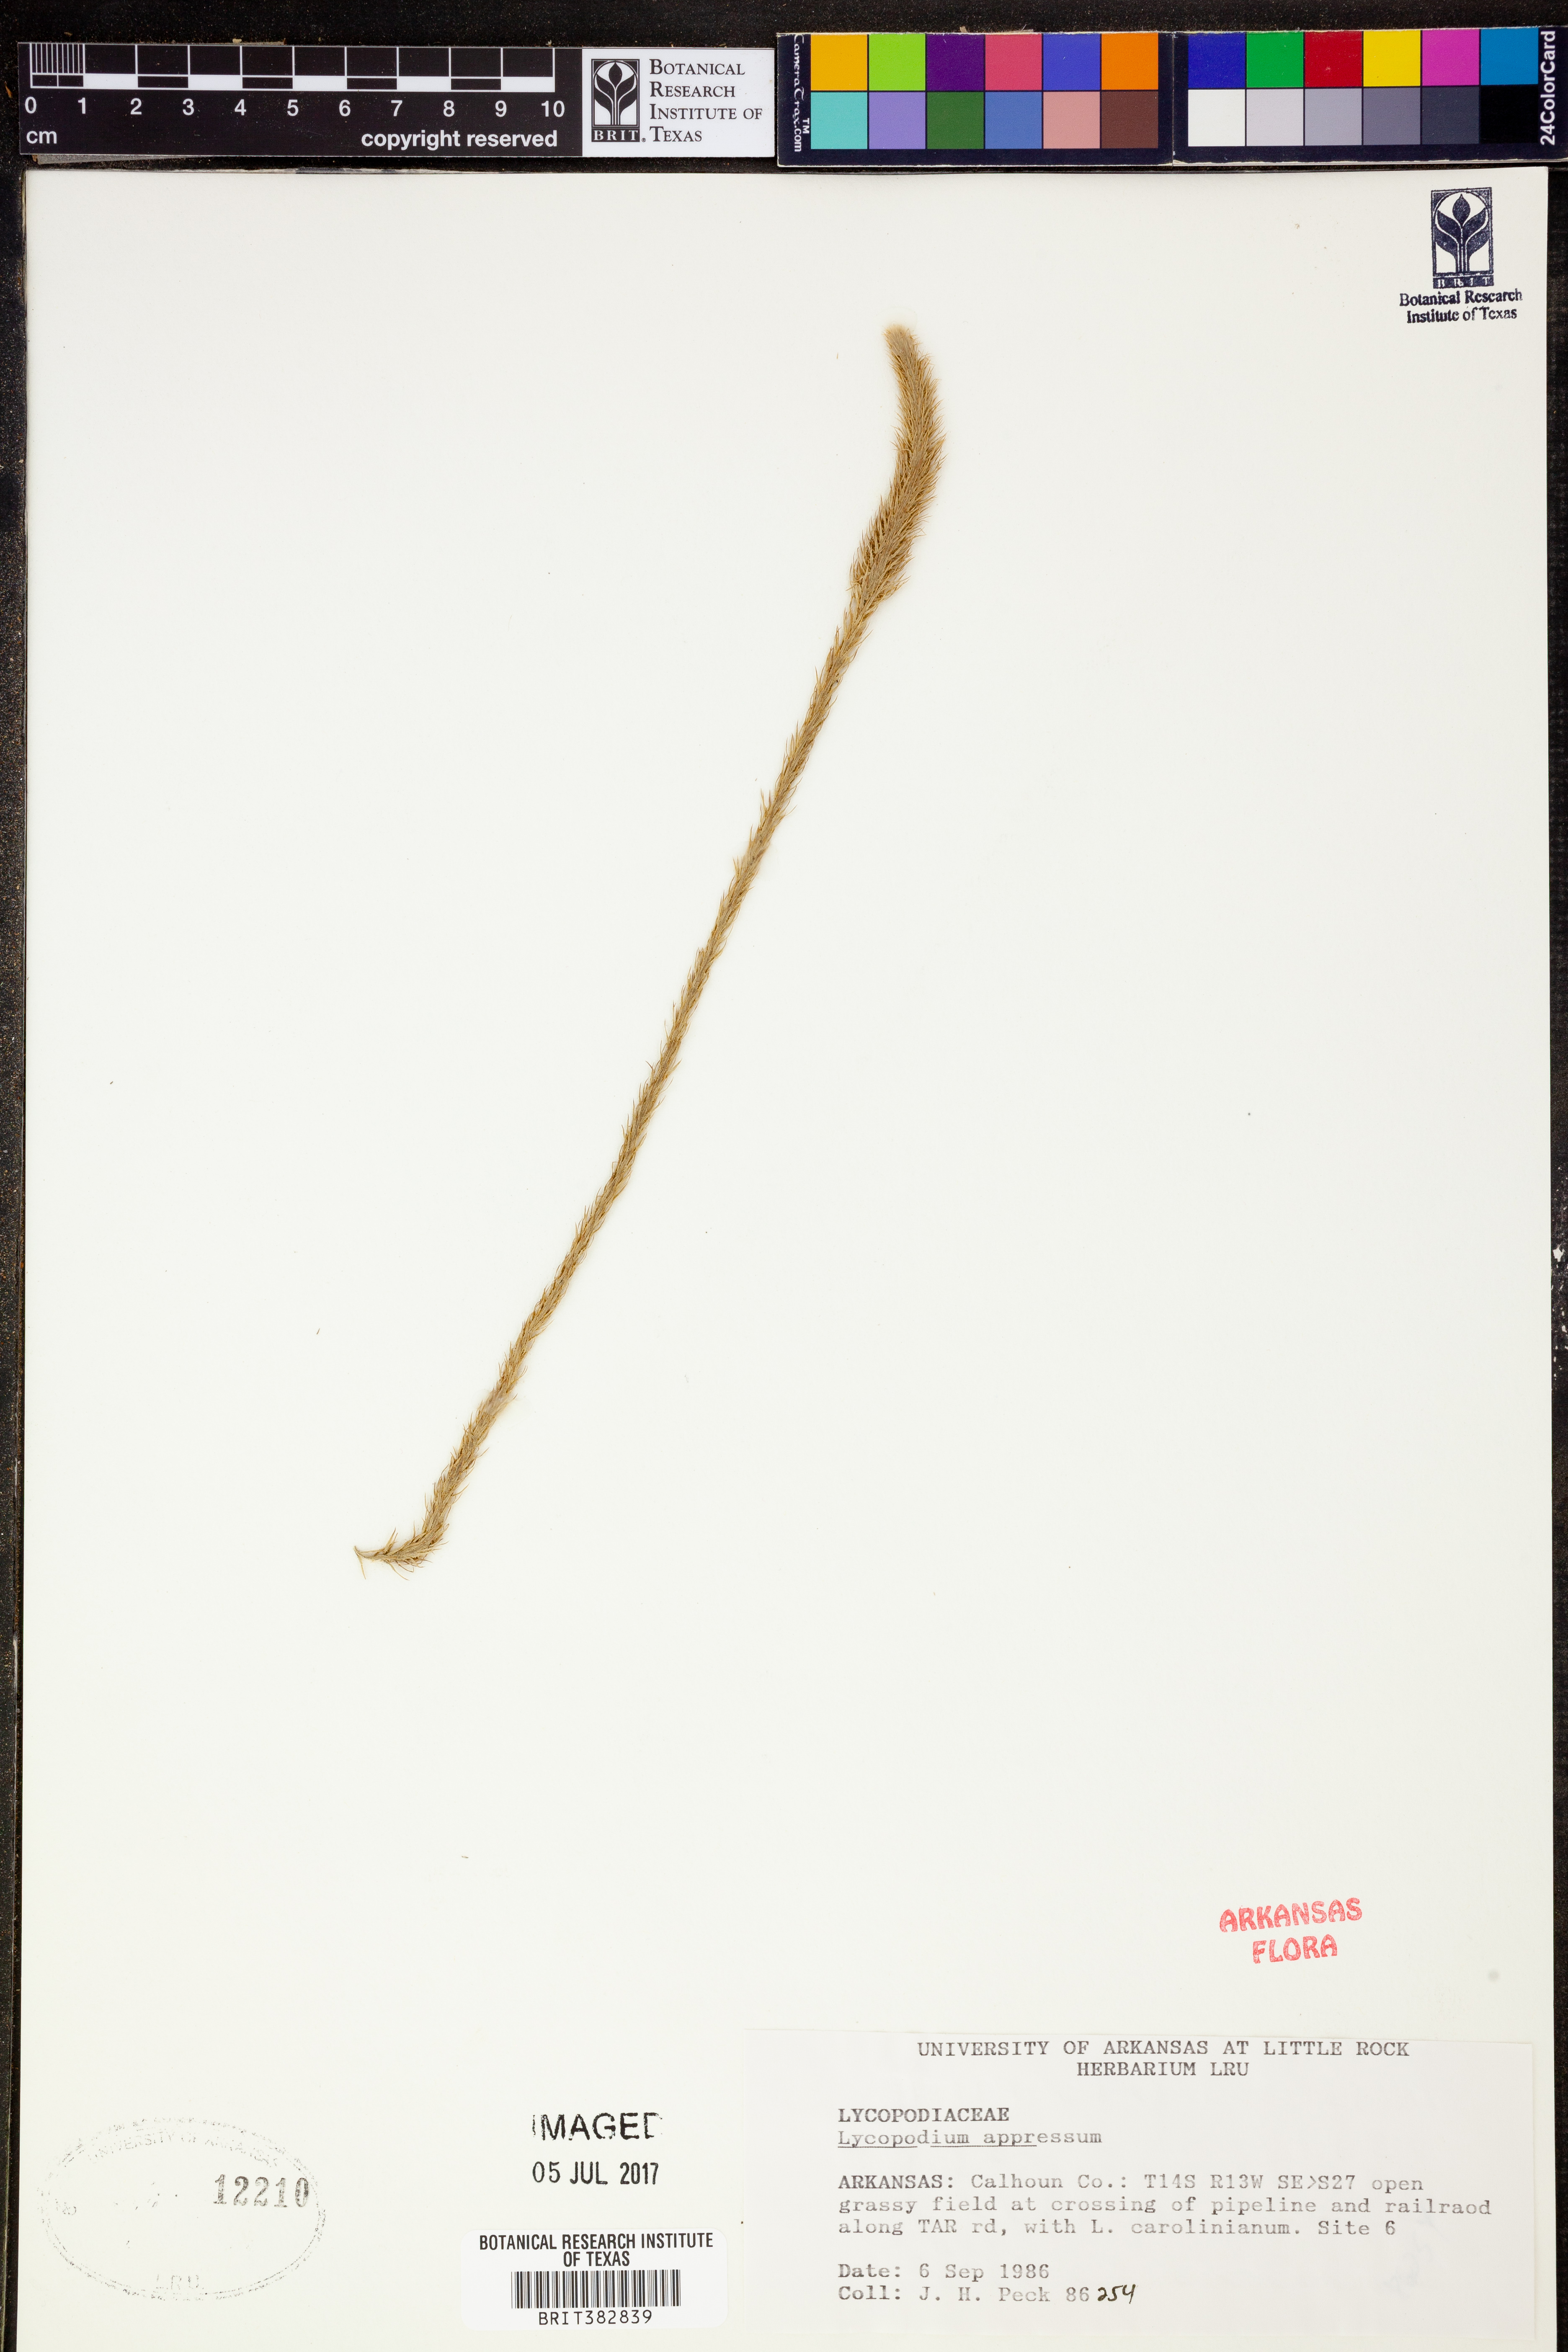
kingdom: Plantae
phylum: Tracheophyta
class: Lycopodiopsida
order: Lycopodiales
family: Lycopodiaceae
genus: Lycopodiella
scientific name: Lycopodiella appressa
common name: Appressed bog clubmoss
